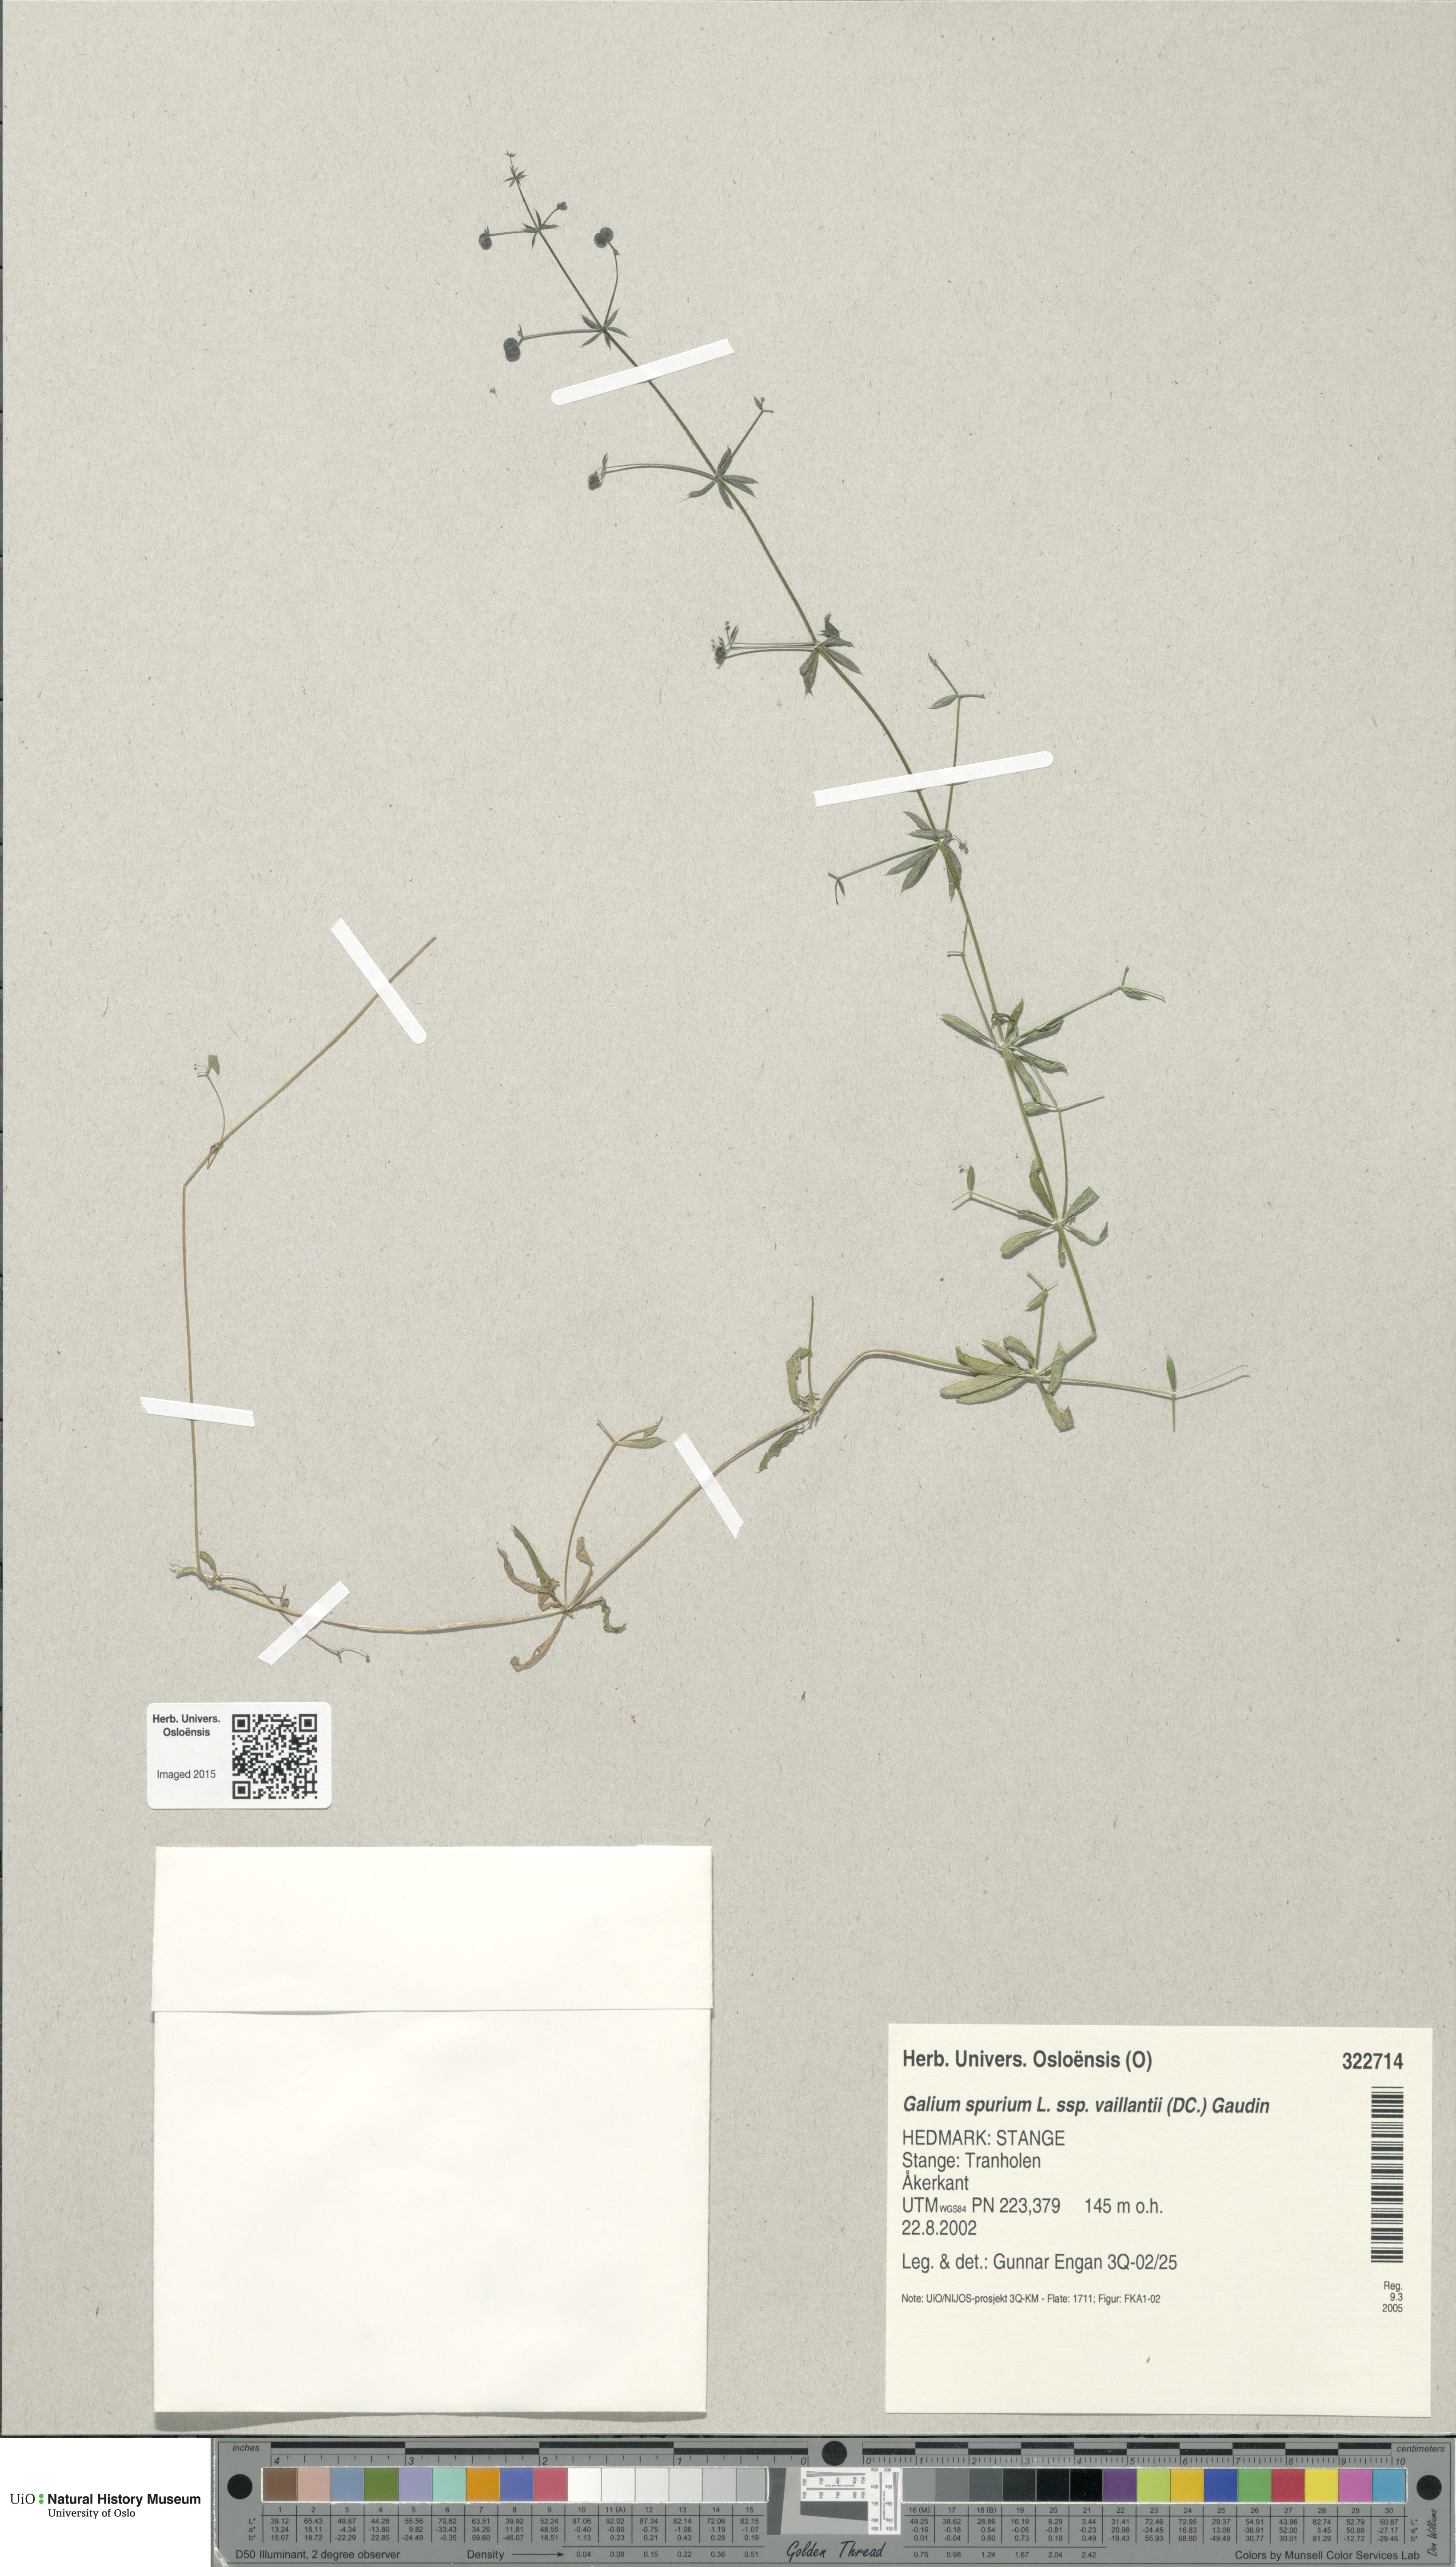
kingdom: Plantae
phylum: Tracheophyta
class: Magnoliopsida
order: Gentianales
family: Rubiaceae
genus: Galium
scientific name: Galium spurium
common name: False cleavers
